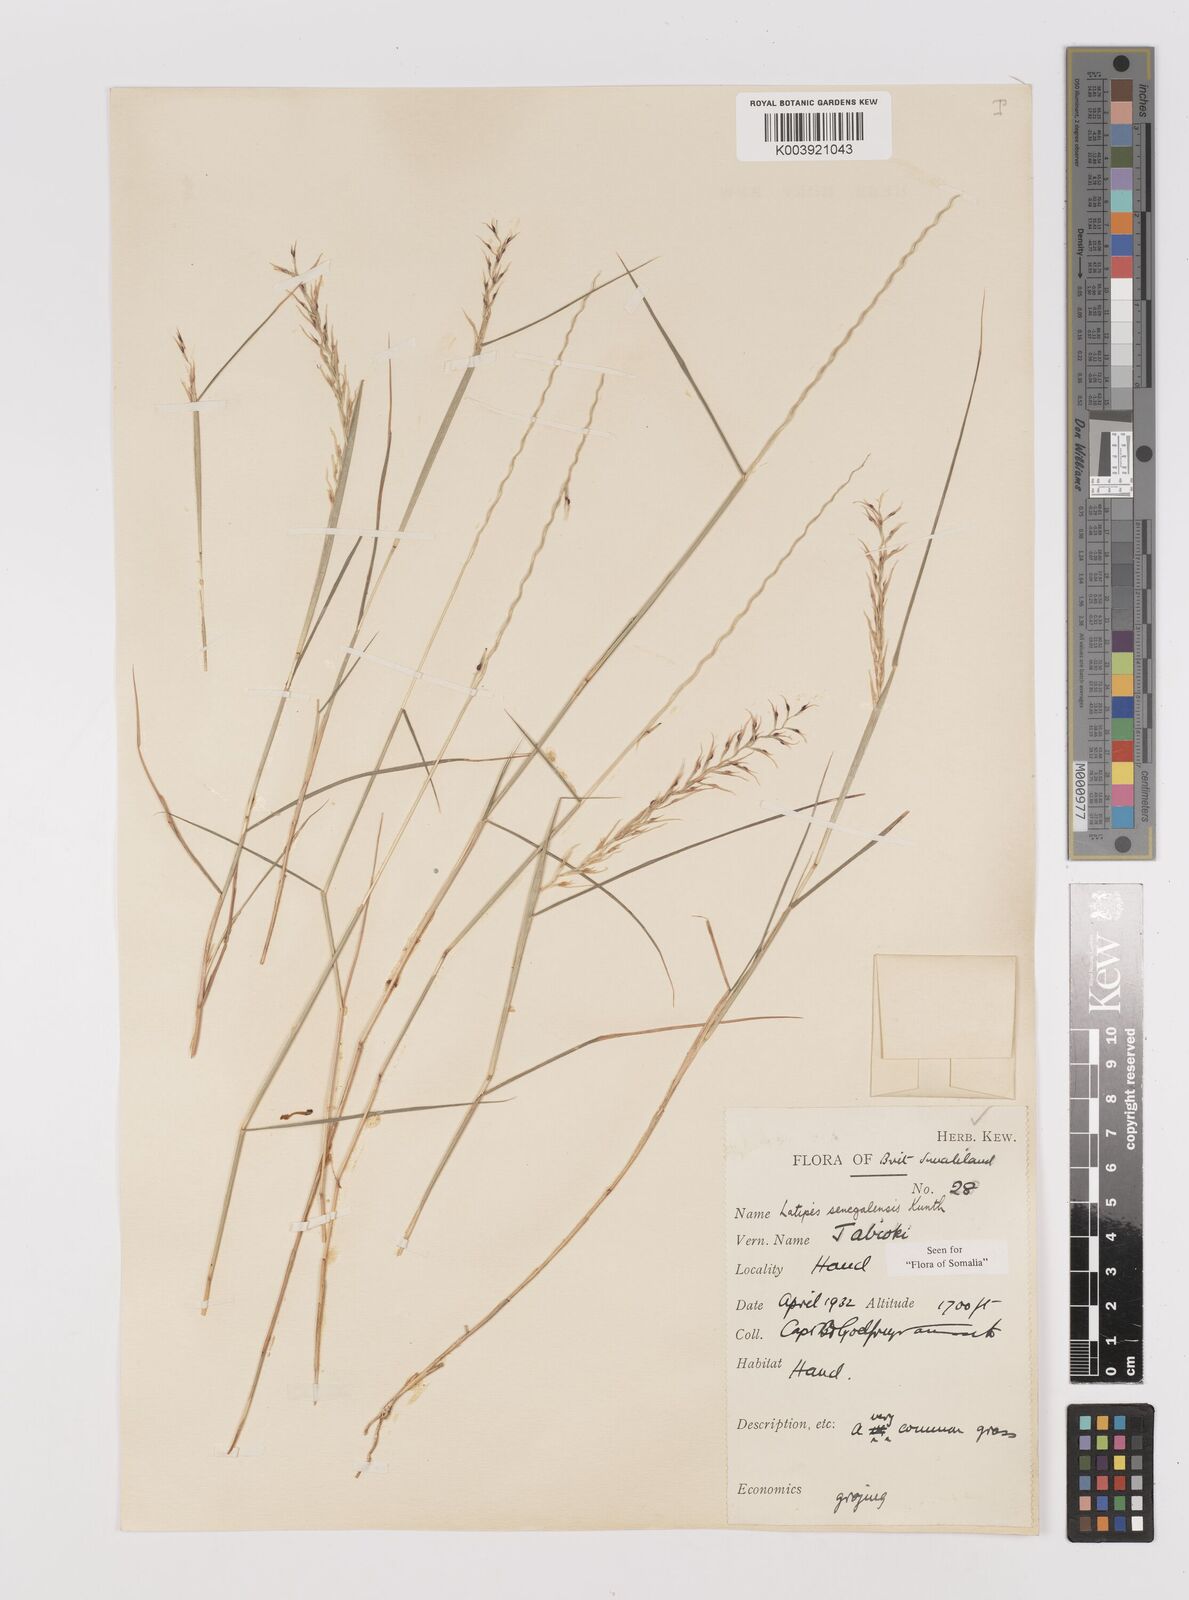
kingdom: Plantae
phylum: Tracheophyta
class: Liliopsida
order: Poales
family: Poaceae
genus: Leptothrium
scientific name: Leptothrium senegalense
